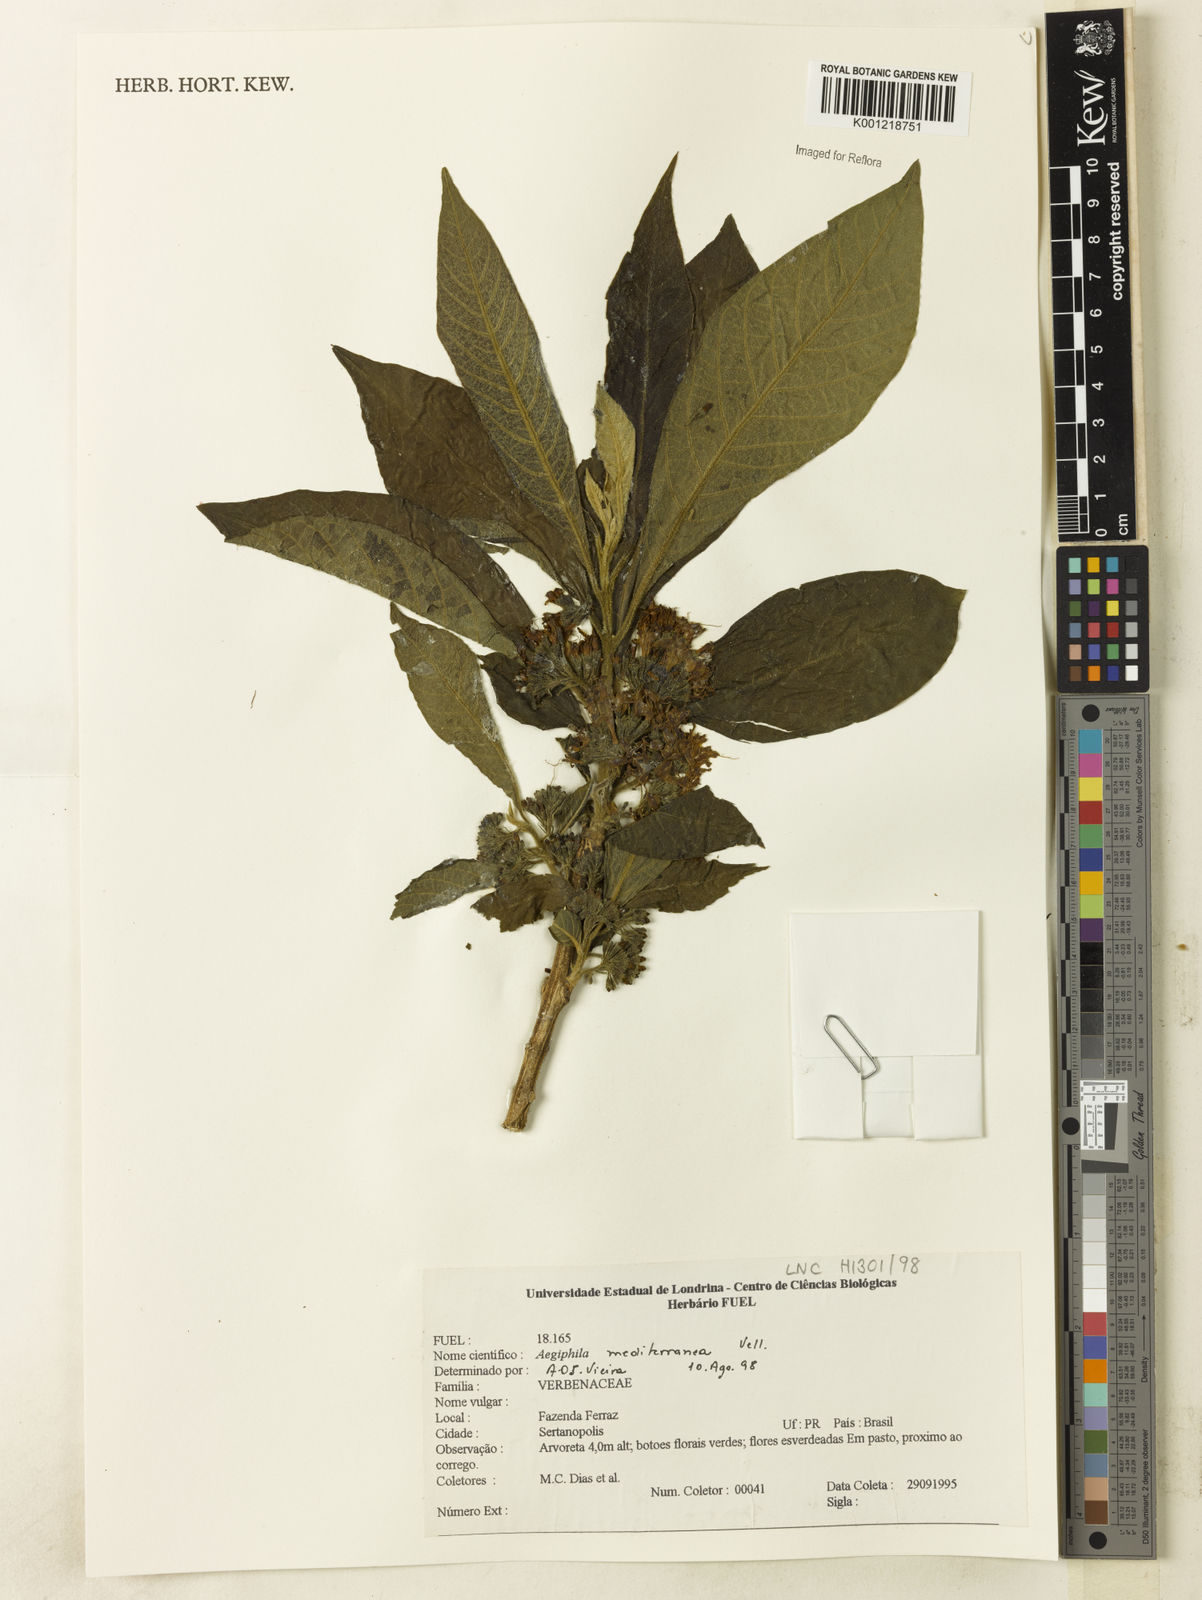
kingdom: Plantae
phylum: Tracheophyta
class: Magnoliopsida
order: Lamiales
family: Lamiaceae
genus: Aegiphila
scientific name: Aegiphila mediterranea
